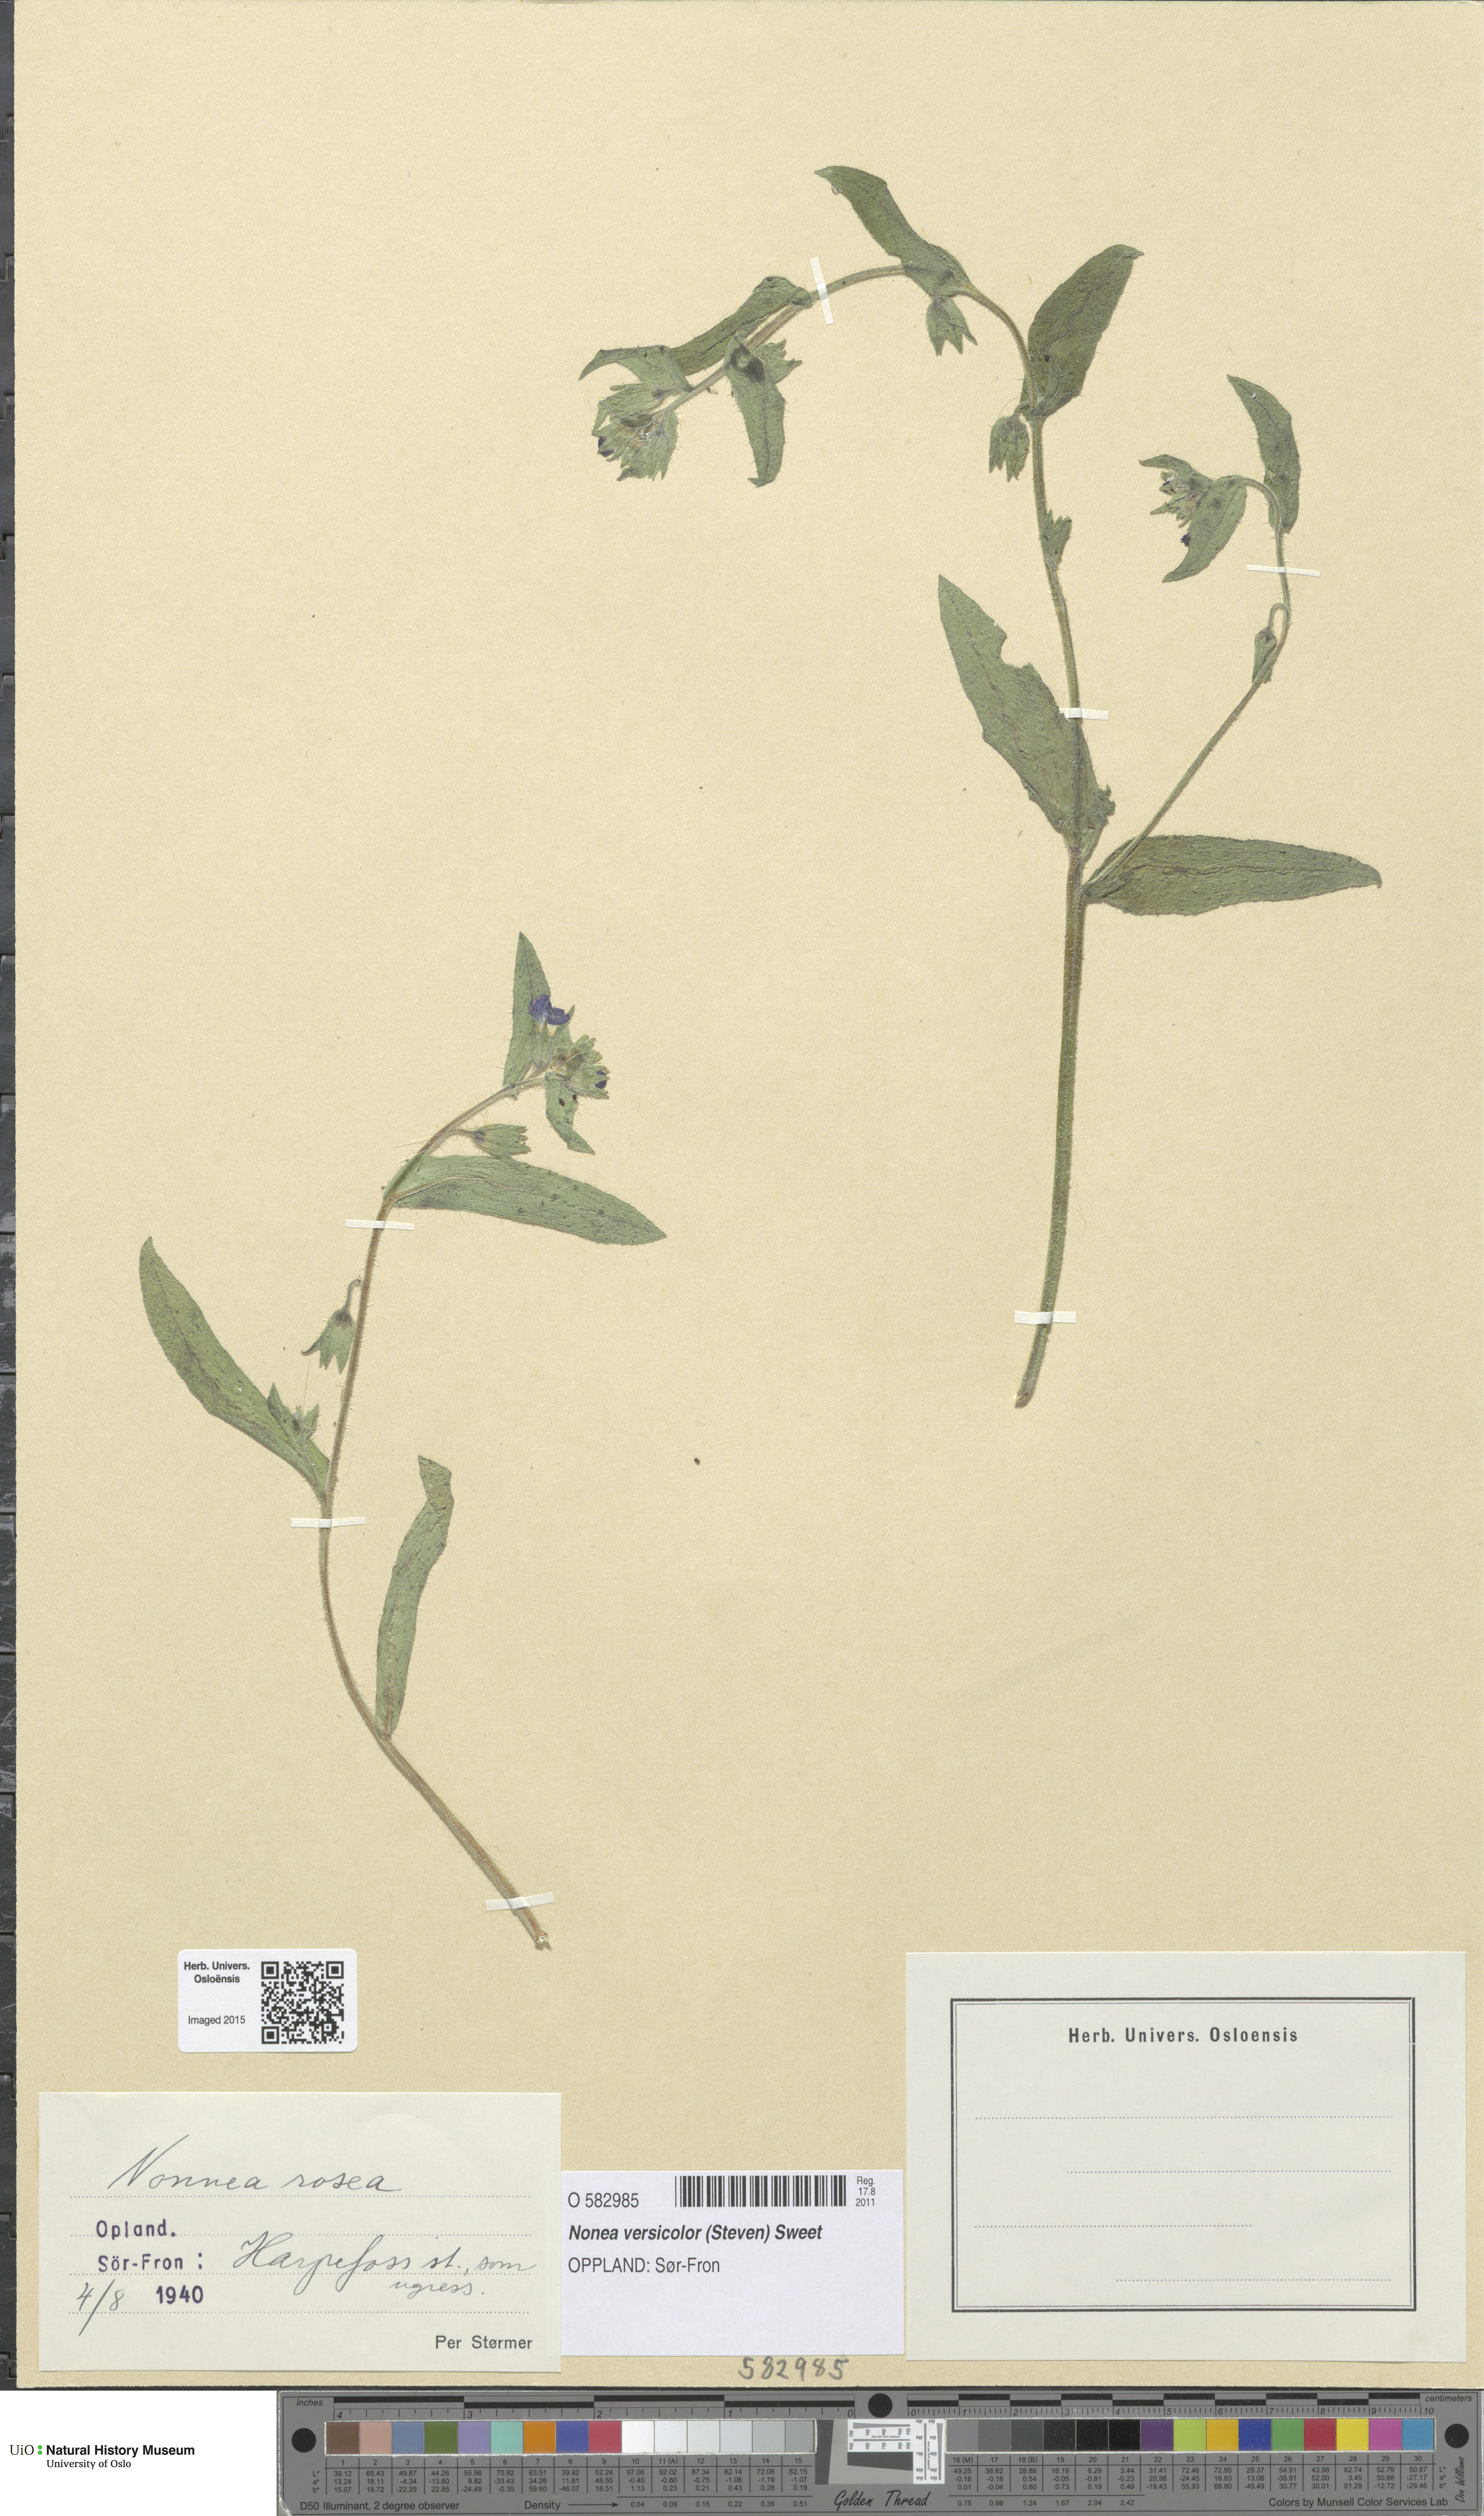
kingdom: Plantae
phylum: Tracheophyta
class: Magnoliopsida
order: Boraginales
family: Boraginaceae
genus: Nonea
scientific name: Nonea versicolor
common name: Varied monkswort
